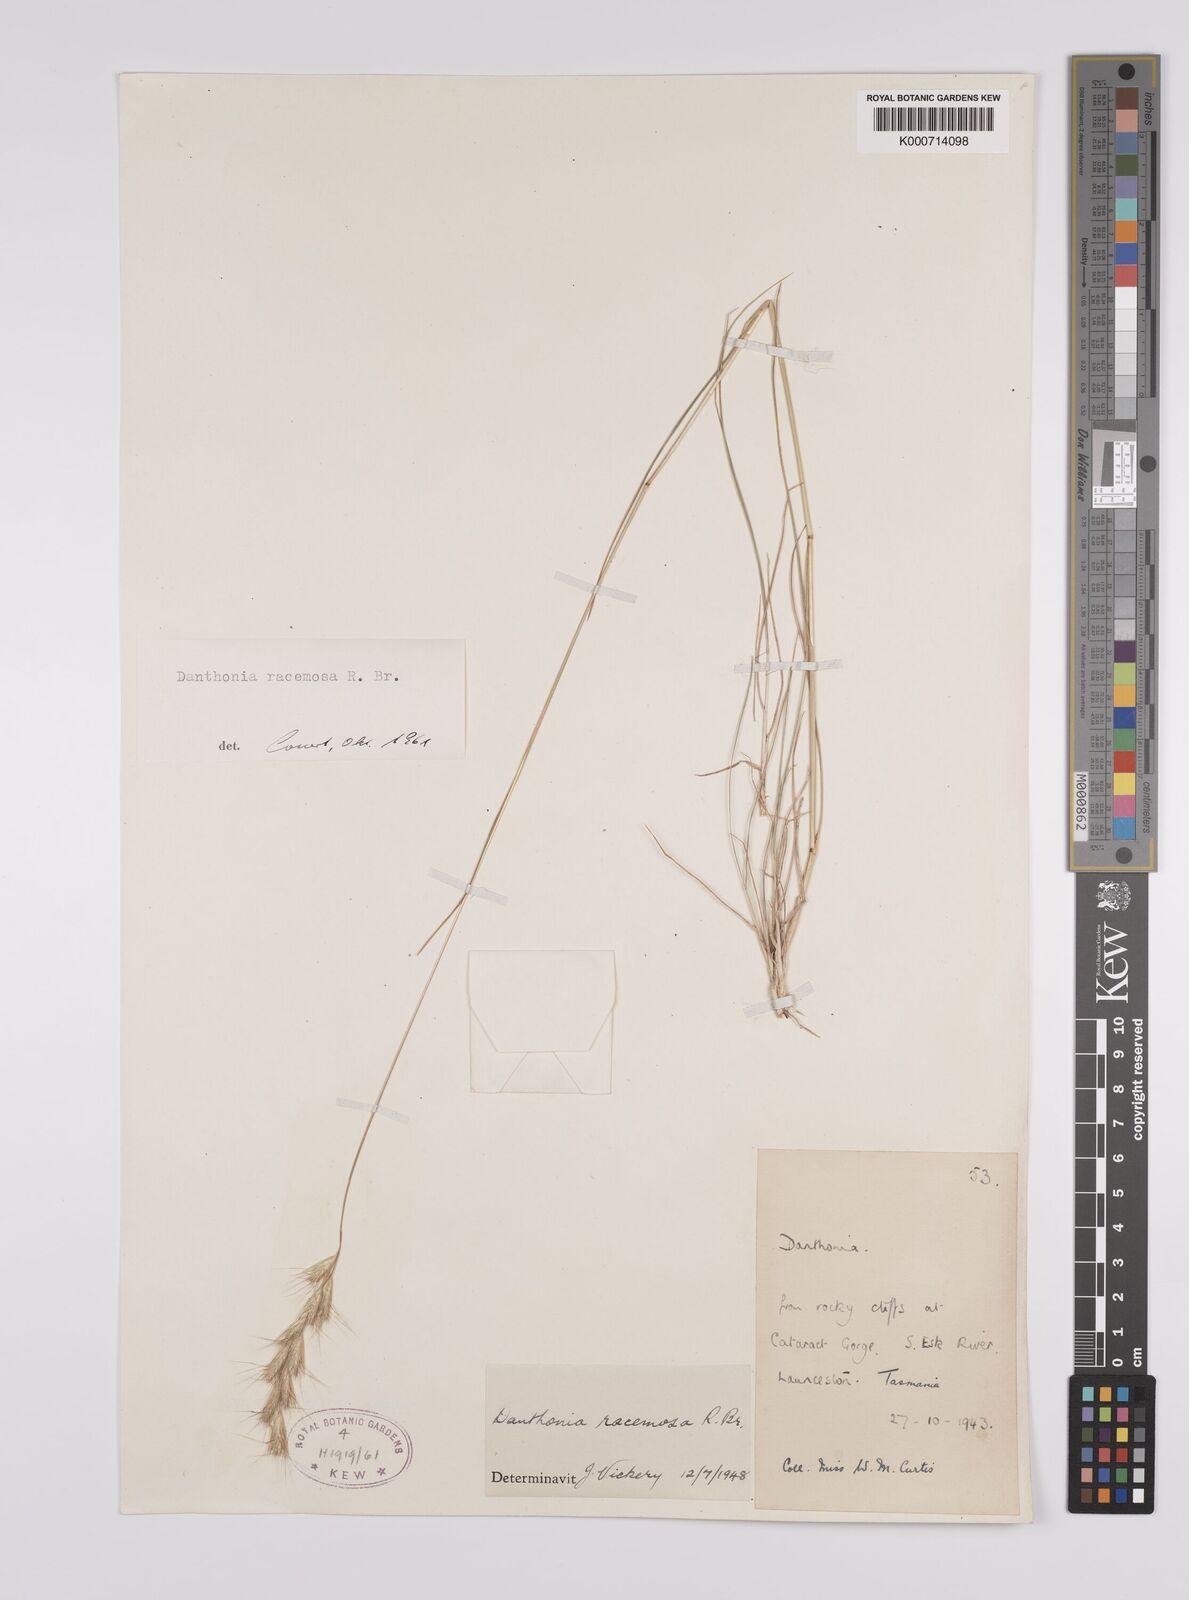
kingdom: Plantae
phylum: Tracheophyta
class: Liliopsida
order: Poales
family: Poaceae
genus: Rytidosperma
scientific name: Rytidosperma racemosum
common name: Wallaby-grass
